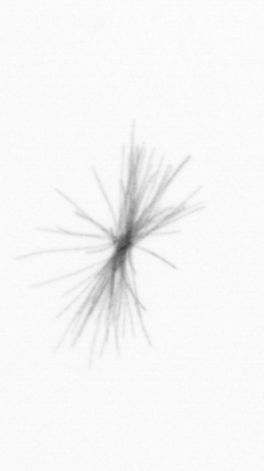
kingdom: Bacteria
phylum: Cyanobacteria
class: Cyanobacteriia
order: Cyanobacteriales
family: Microcoleaceae
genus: Trichodesmium
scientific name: Trichodesmium
